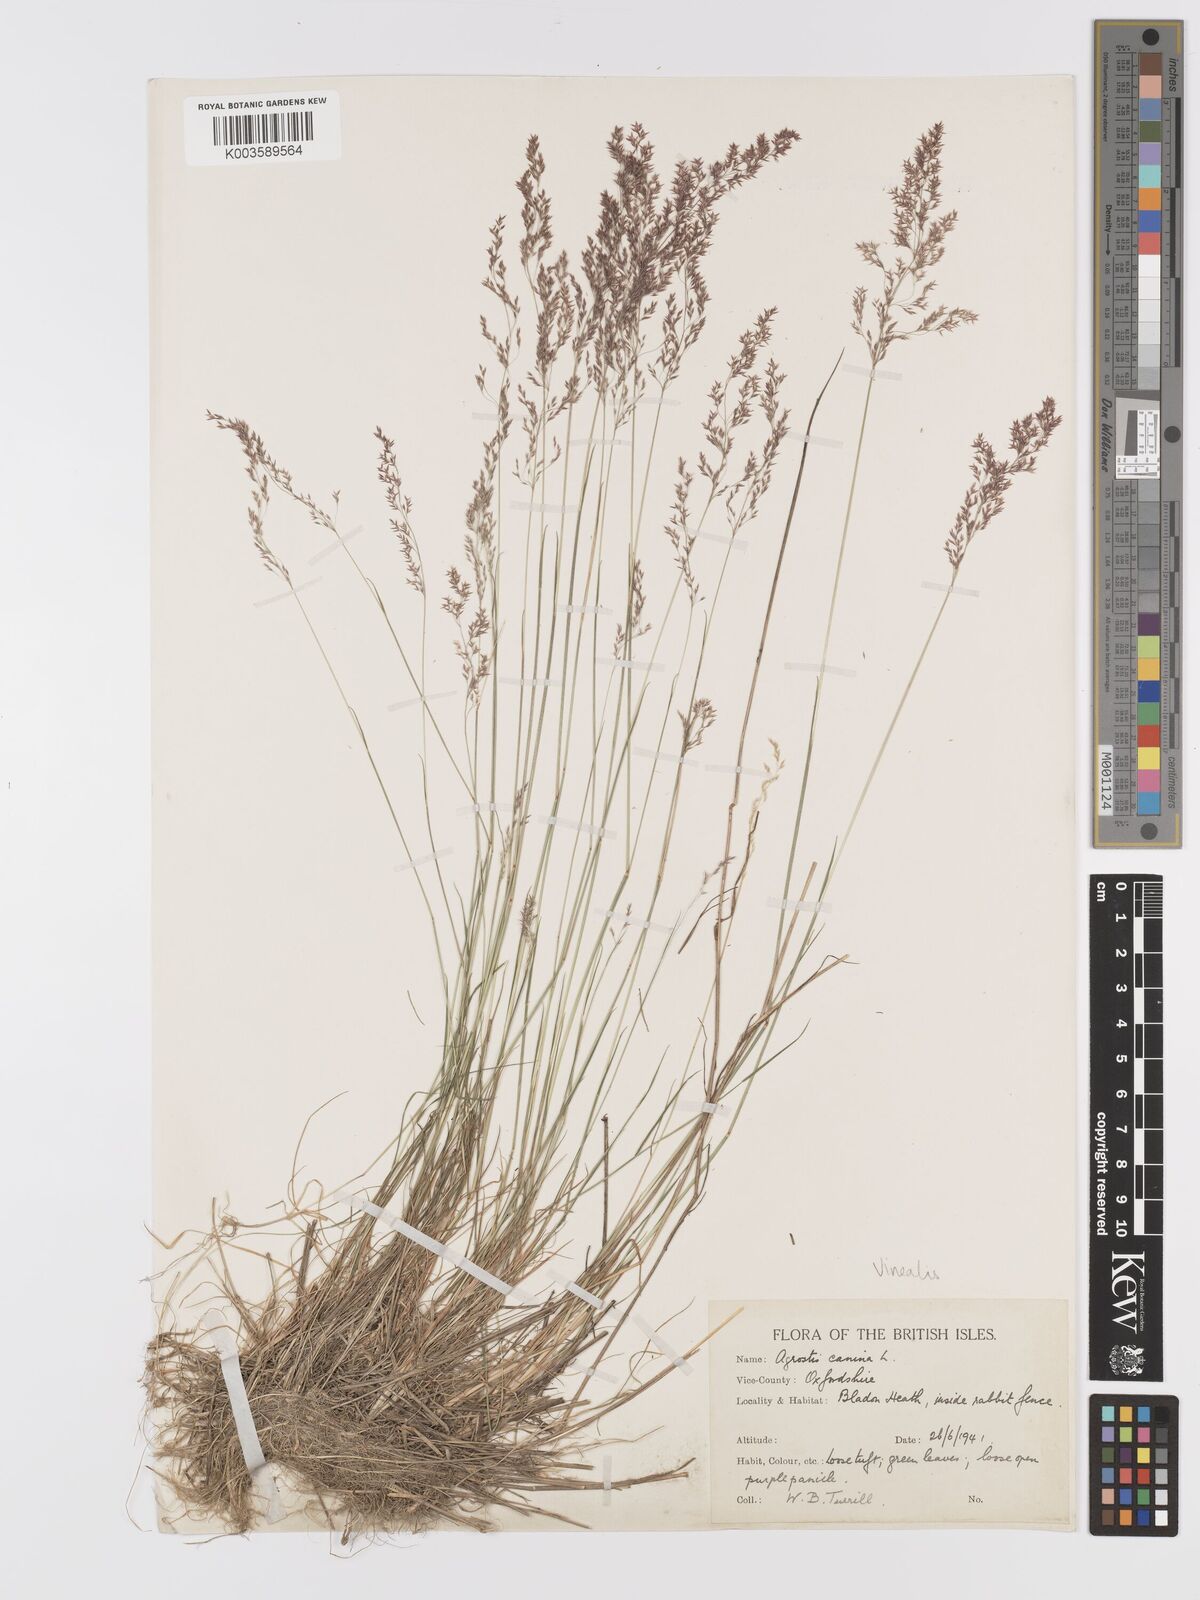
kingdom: Plantae
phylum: Tracheophyta
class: Liliopsida
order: Poales
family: Poaceae
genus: Agrostis
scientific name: Agrostis
